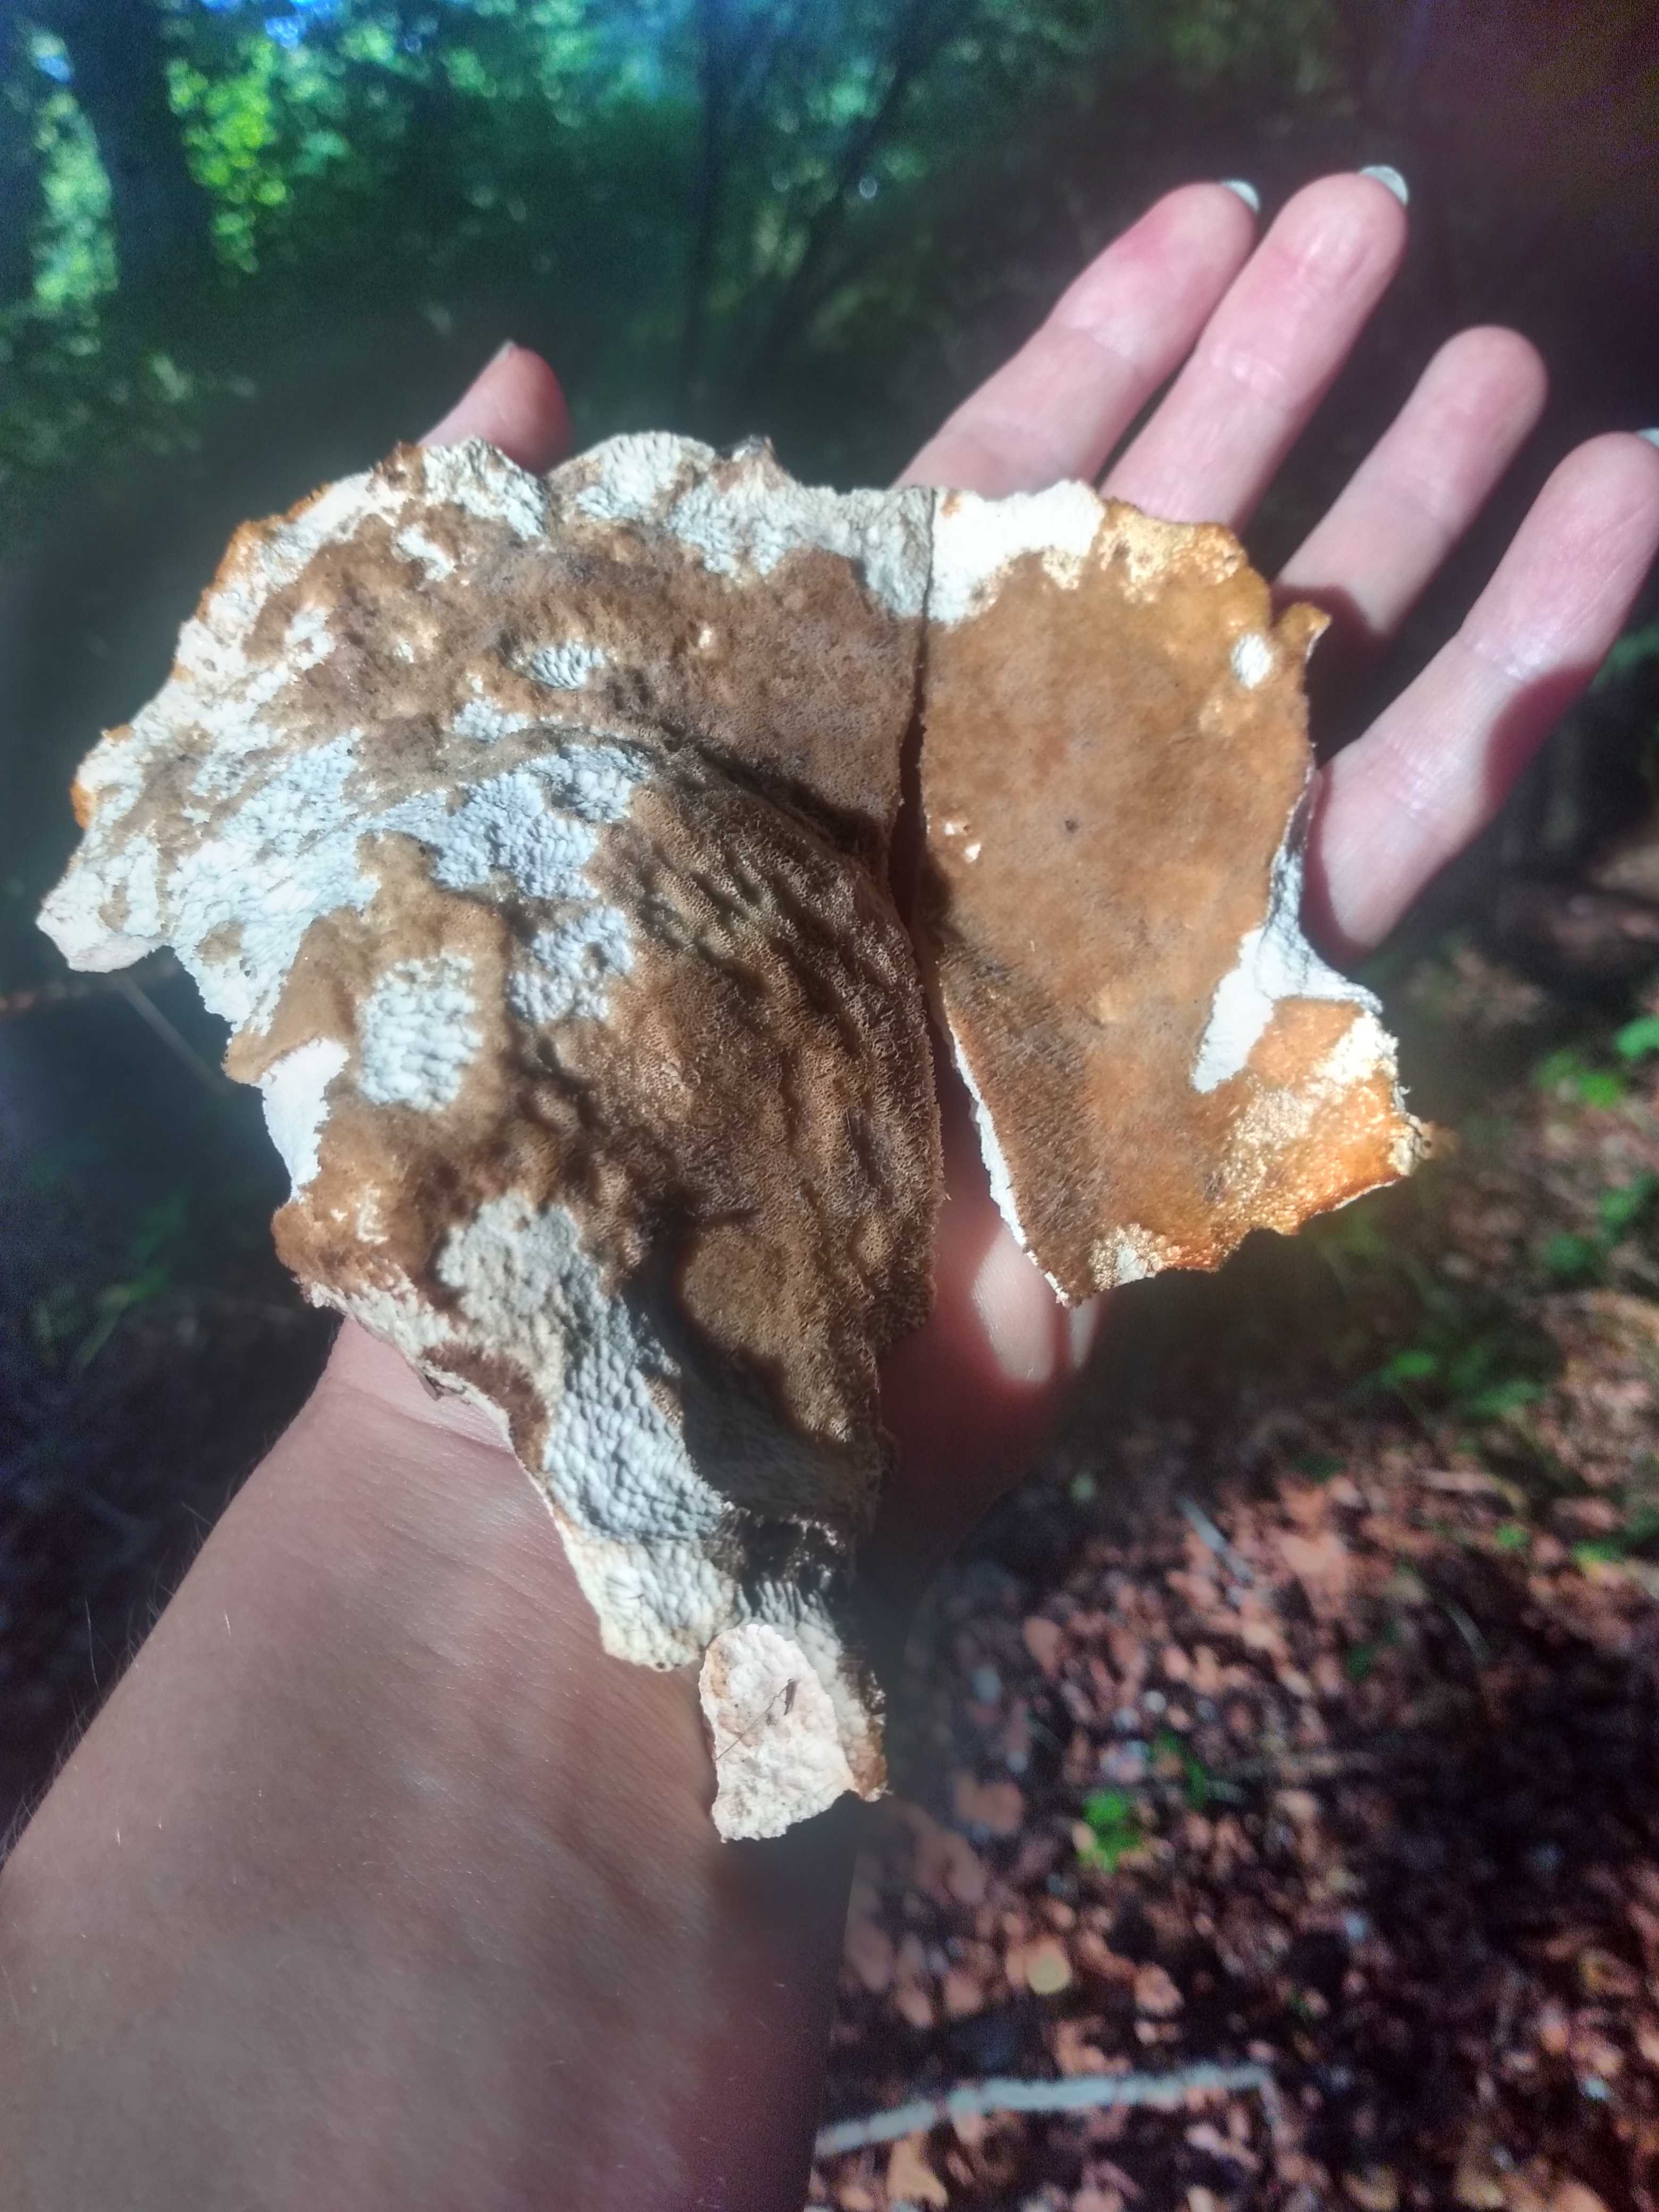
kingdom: Fungi
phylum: Basidiomycota
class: Agaricomycetes
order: Polyporales
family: Laetiporaceae
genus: Laetiporus
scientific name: Laetiporus sulphureus
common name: svovlporesvamp
